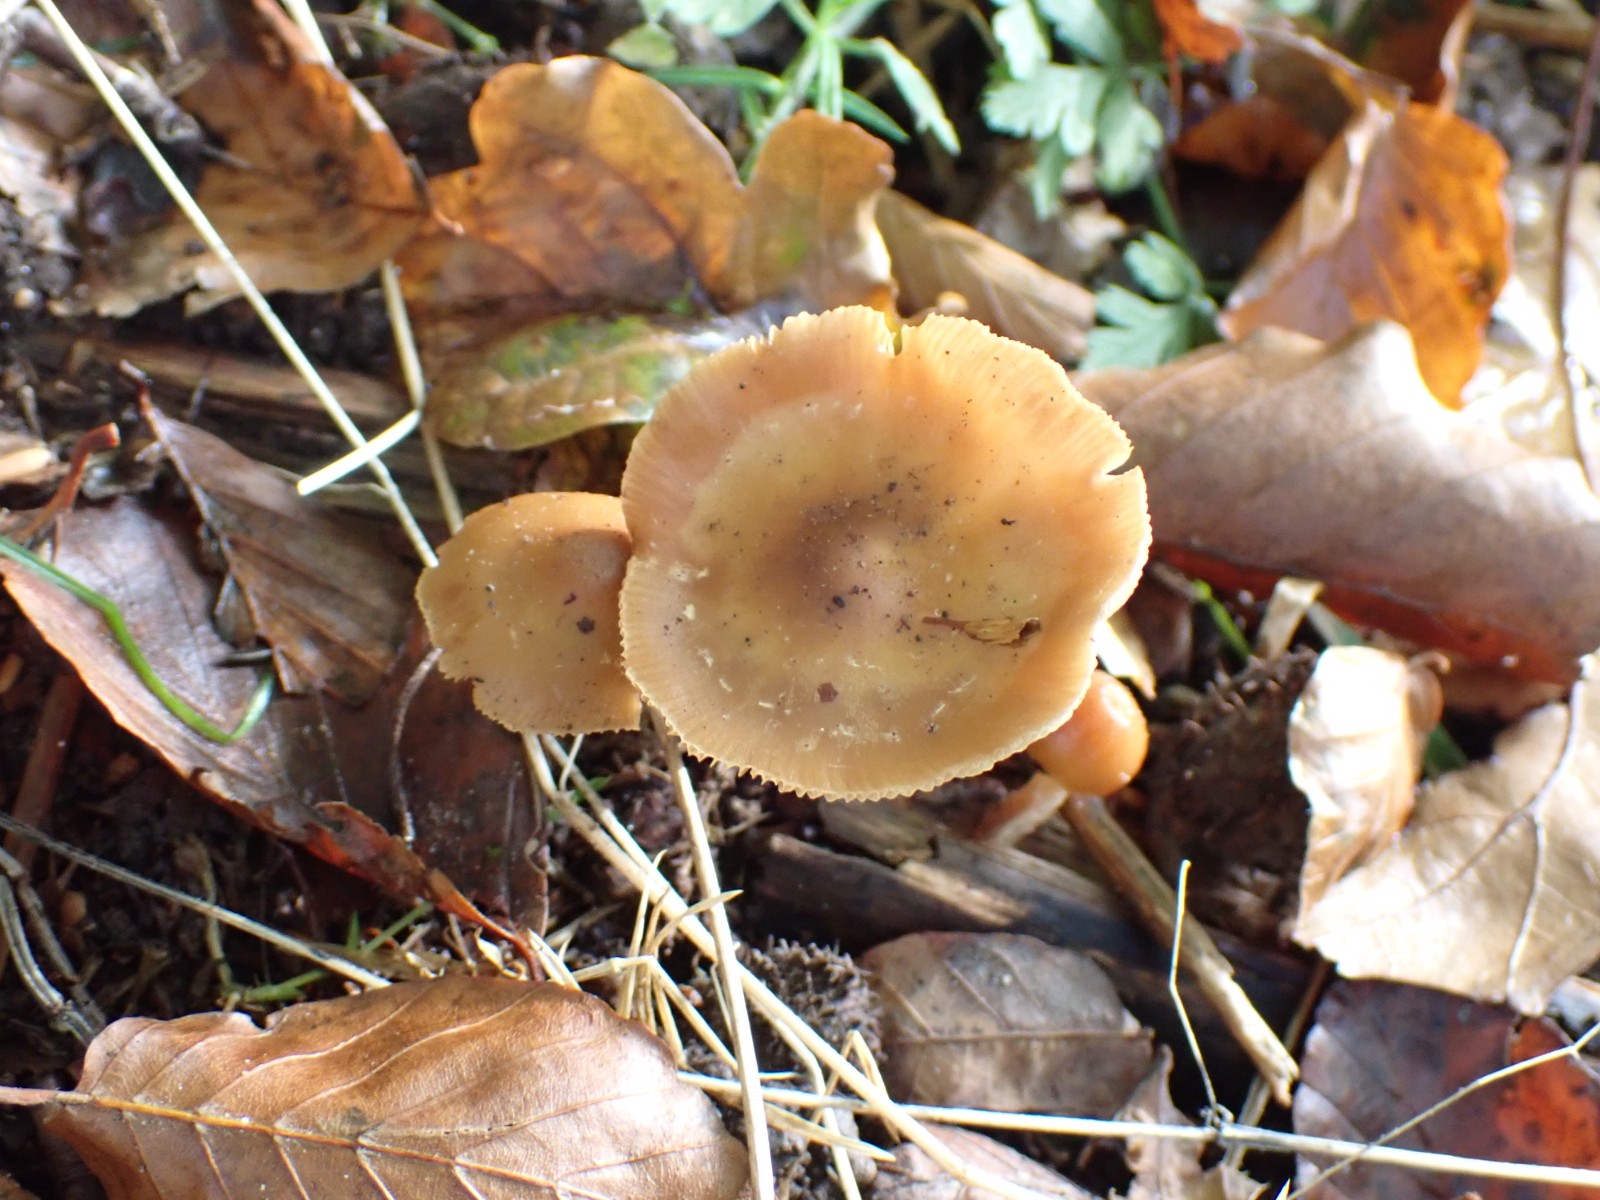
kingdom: Fungi
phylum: Basidiomycota
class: Agaricomycetes
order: Agaricales
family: Cortinariaceae
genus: Cortinarius
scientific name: Cortinarius
